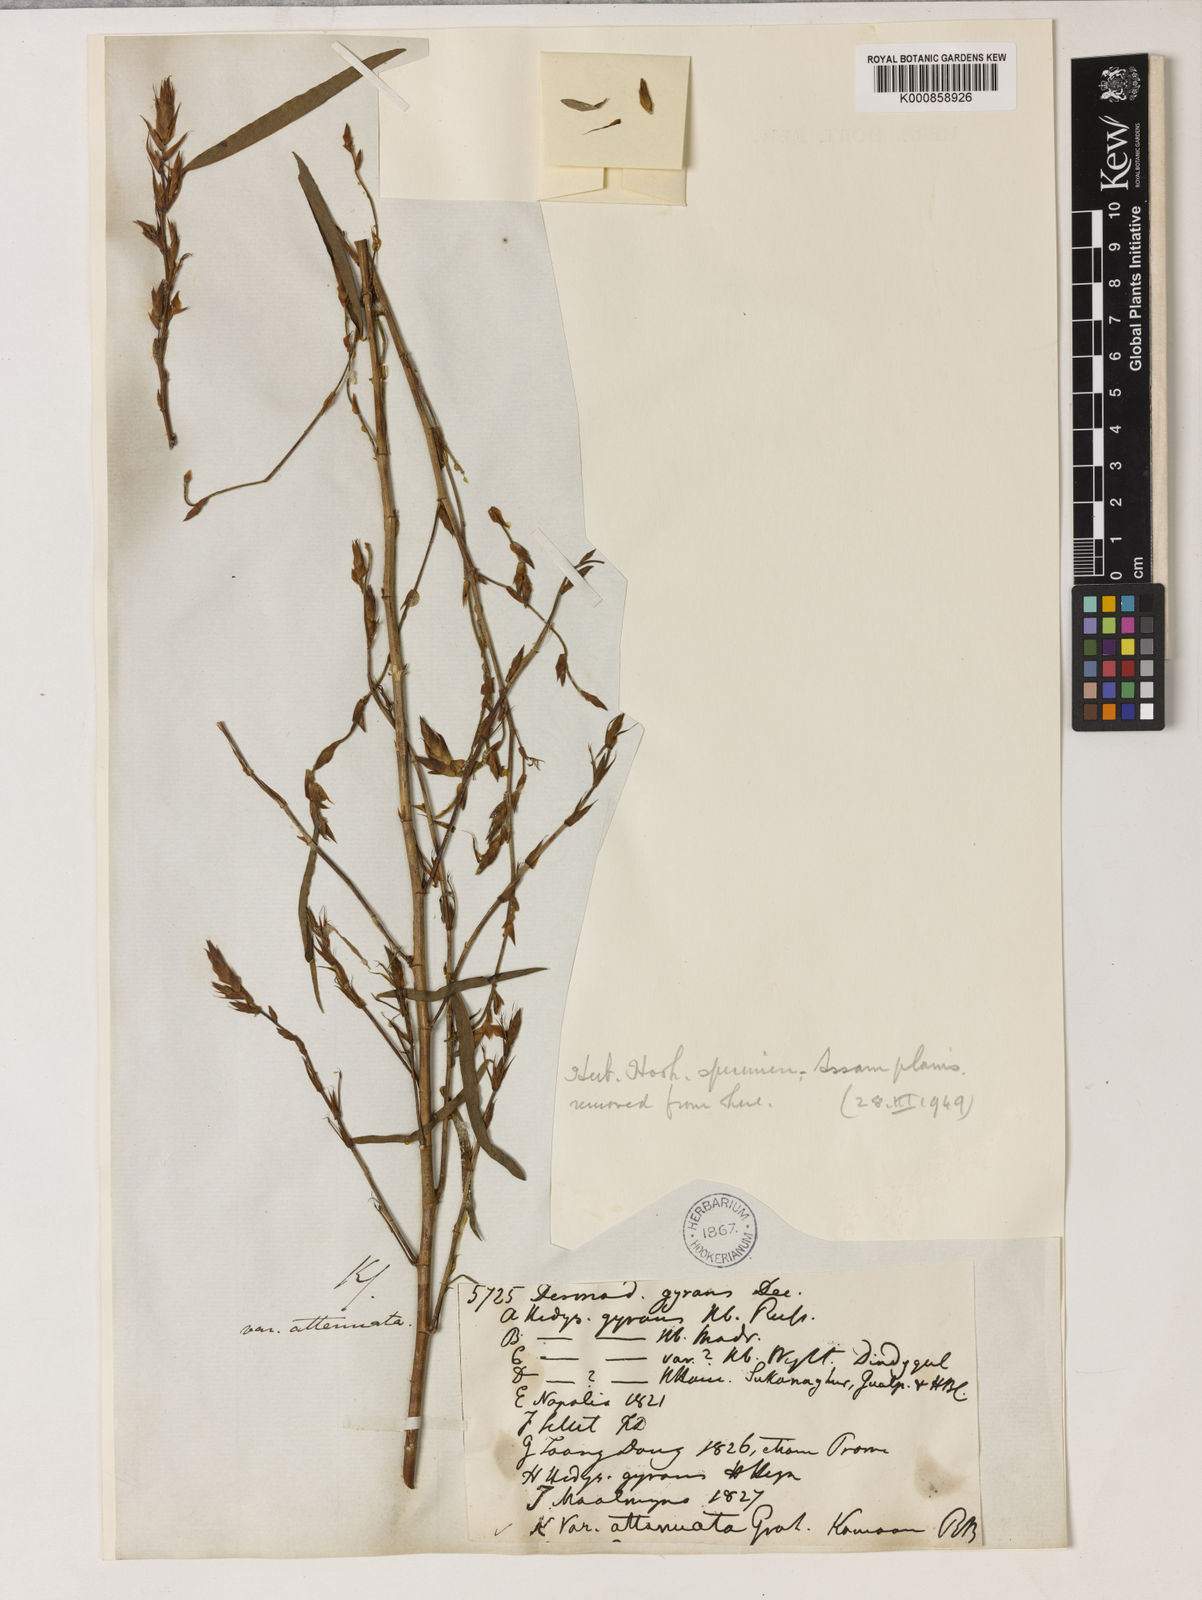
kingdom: Plantae
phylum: Tracheophyta
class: Magnoliopsida
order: Fabales
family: Fabaceae
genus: Codariocalyx
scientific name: Codariocalyx motorius
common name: Telegraph-plant
